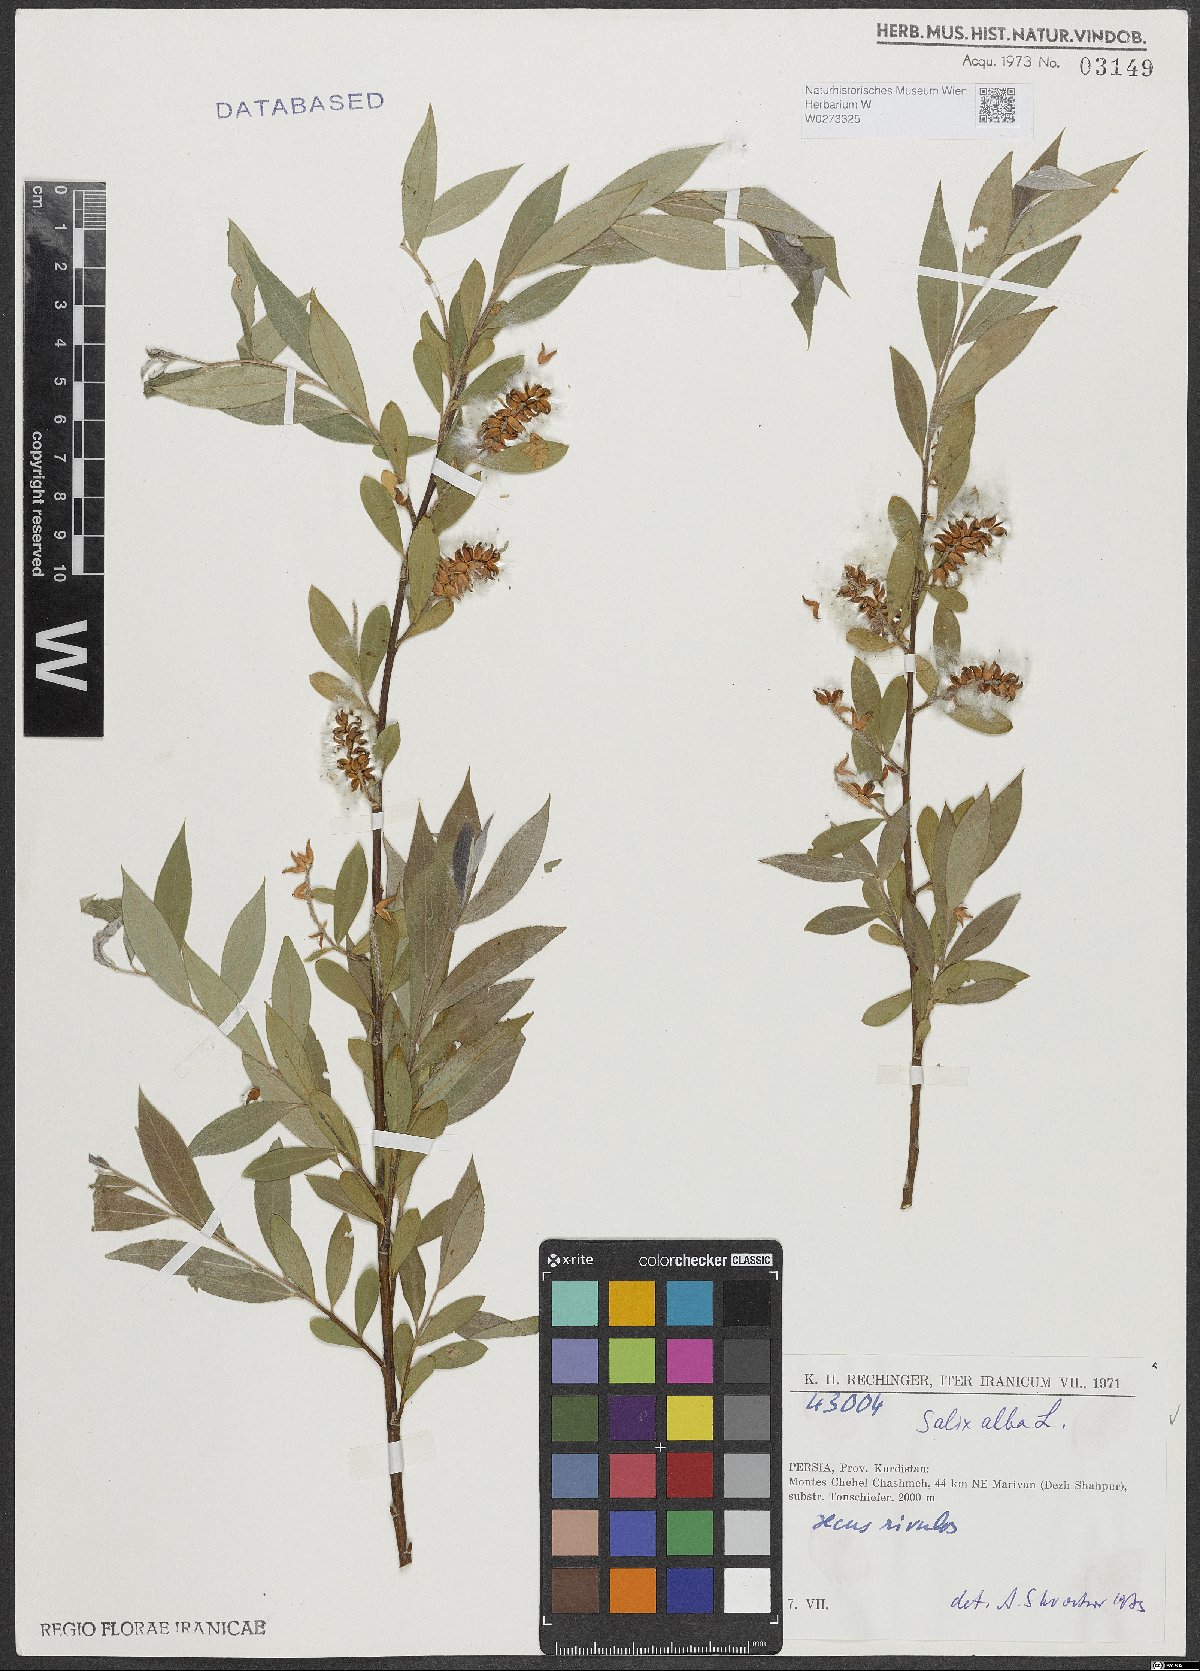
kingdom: Plantae
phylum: Tracheophyta
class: Magnoliopsida
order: Malpighiales
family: Salicaceae
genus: Salix
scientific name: Salix alba
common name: White willow
